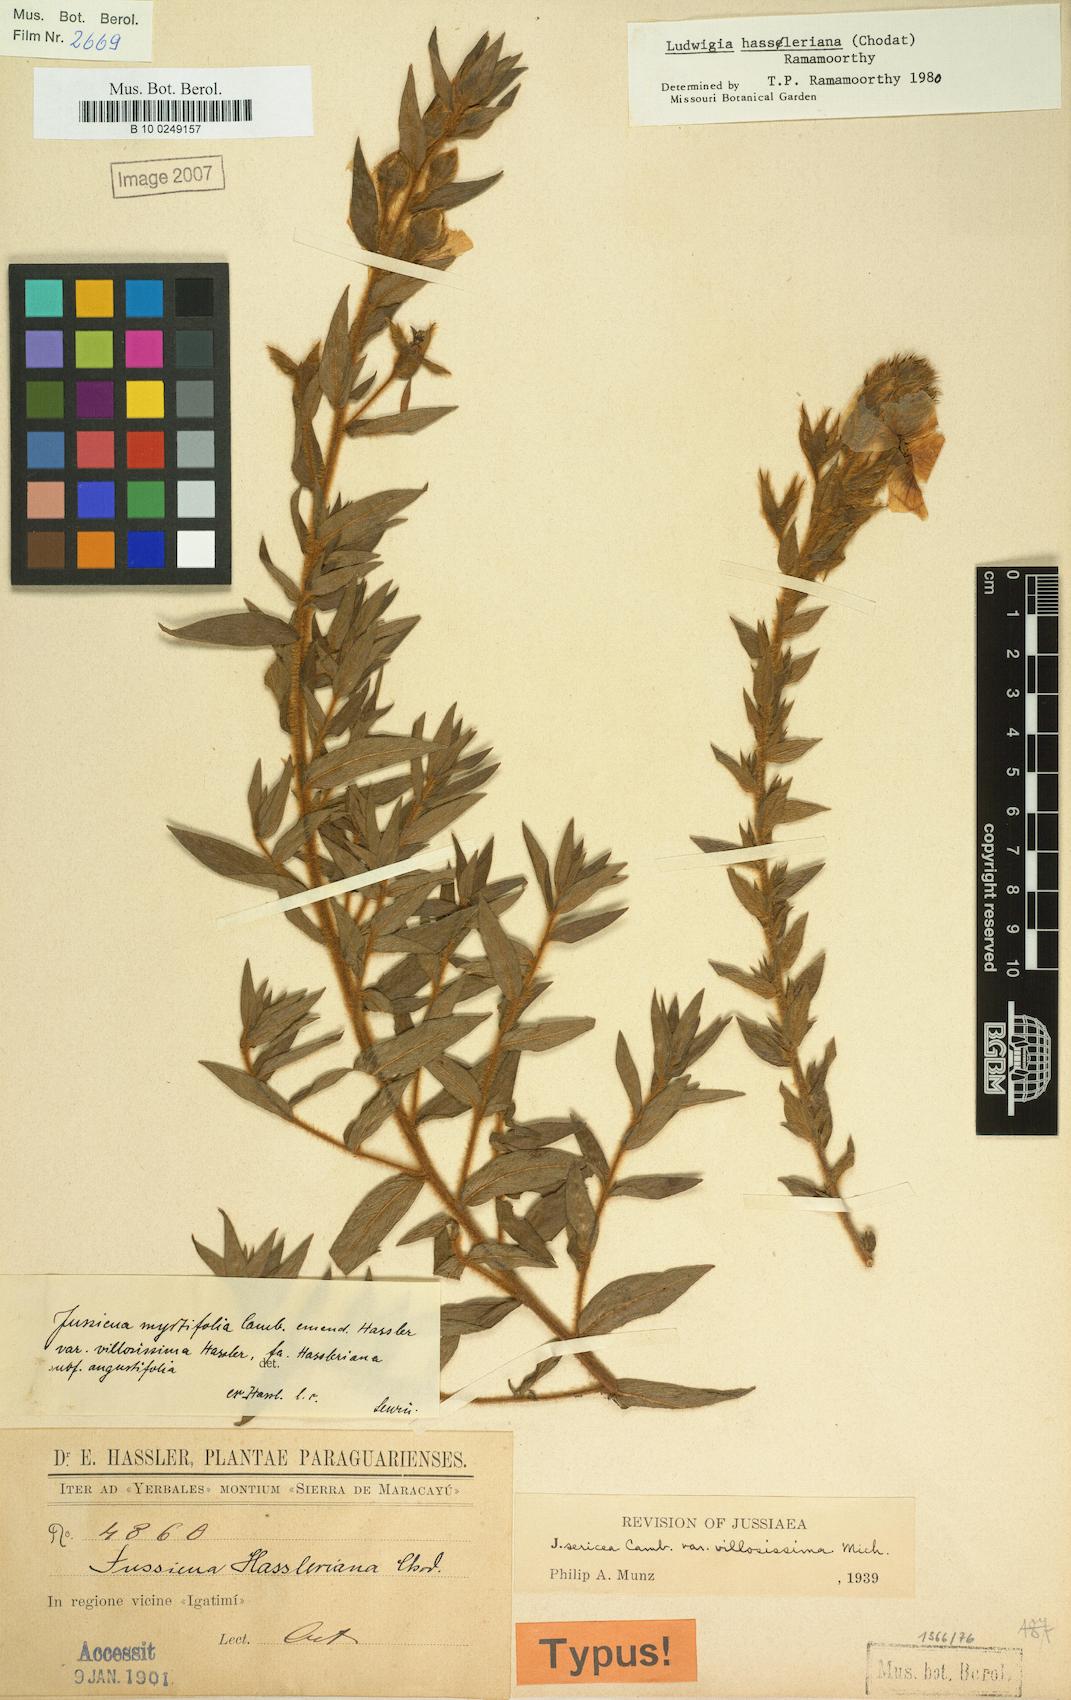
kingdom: Plantae
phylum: Tracheophyta
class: Magnoliopsida
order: Myrtales
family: Onagraceae
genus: Ludwigia
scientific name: Ludwigia hassleriana
